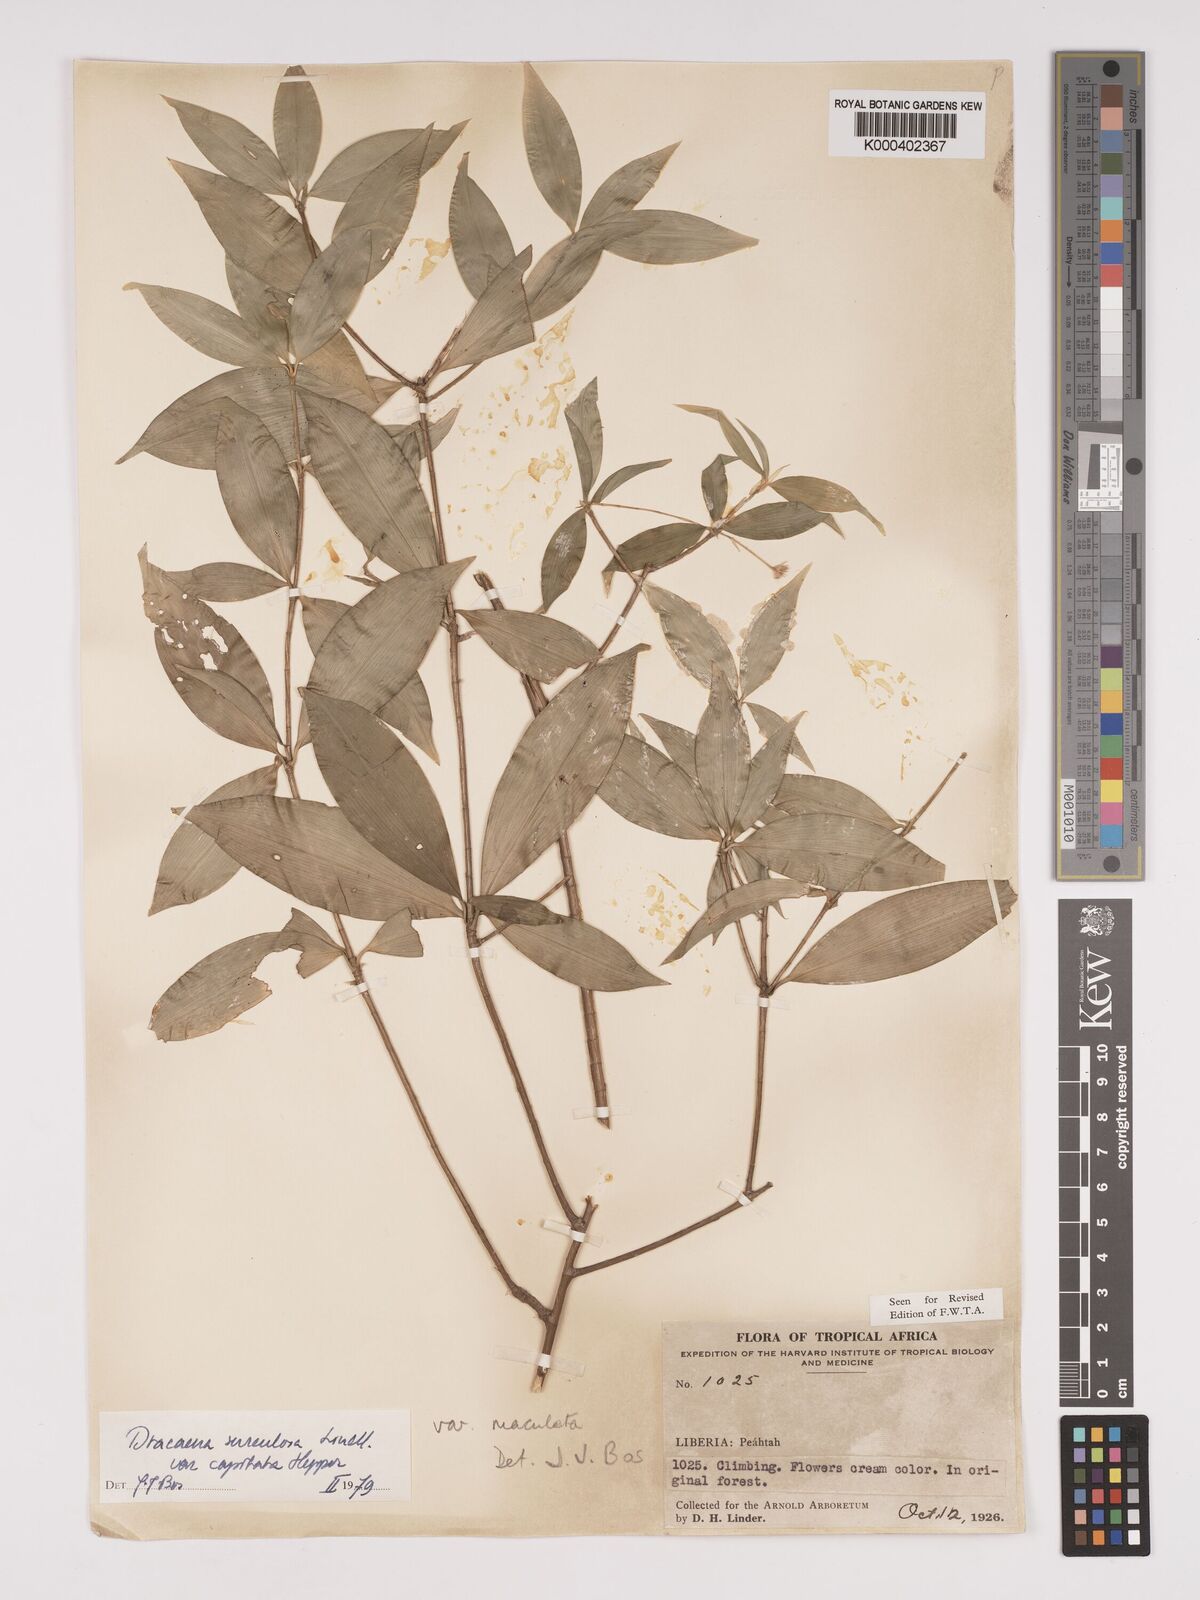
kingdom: Plantae
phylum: Tracheophyta
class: Liliopsida
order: Asparagales
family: Asparagaceae
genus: Dracaena
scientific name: Dracaena surculosa
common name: Spotted dracaena
